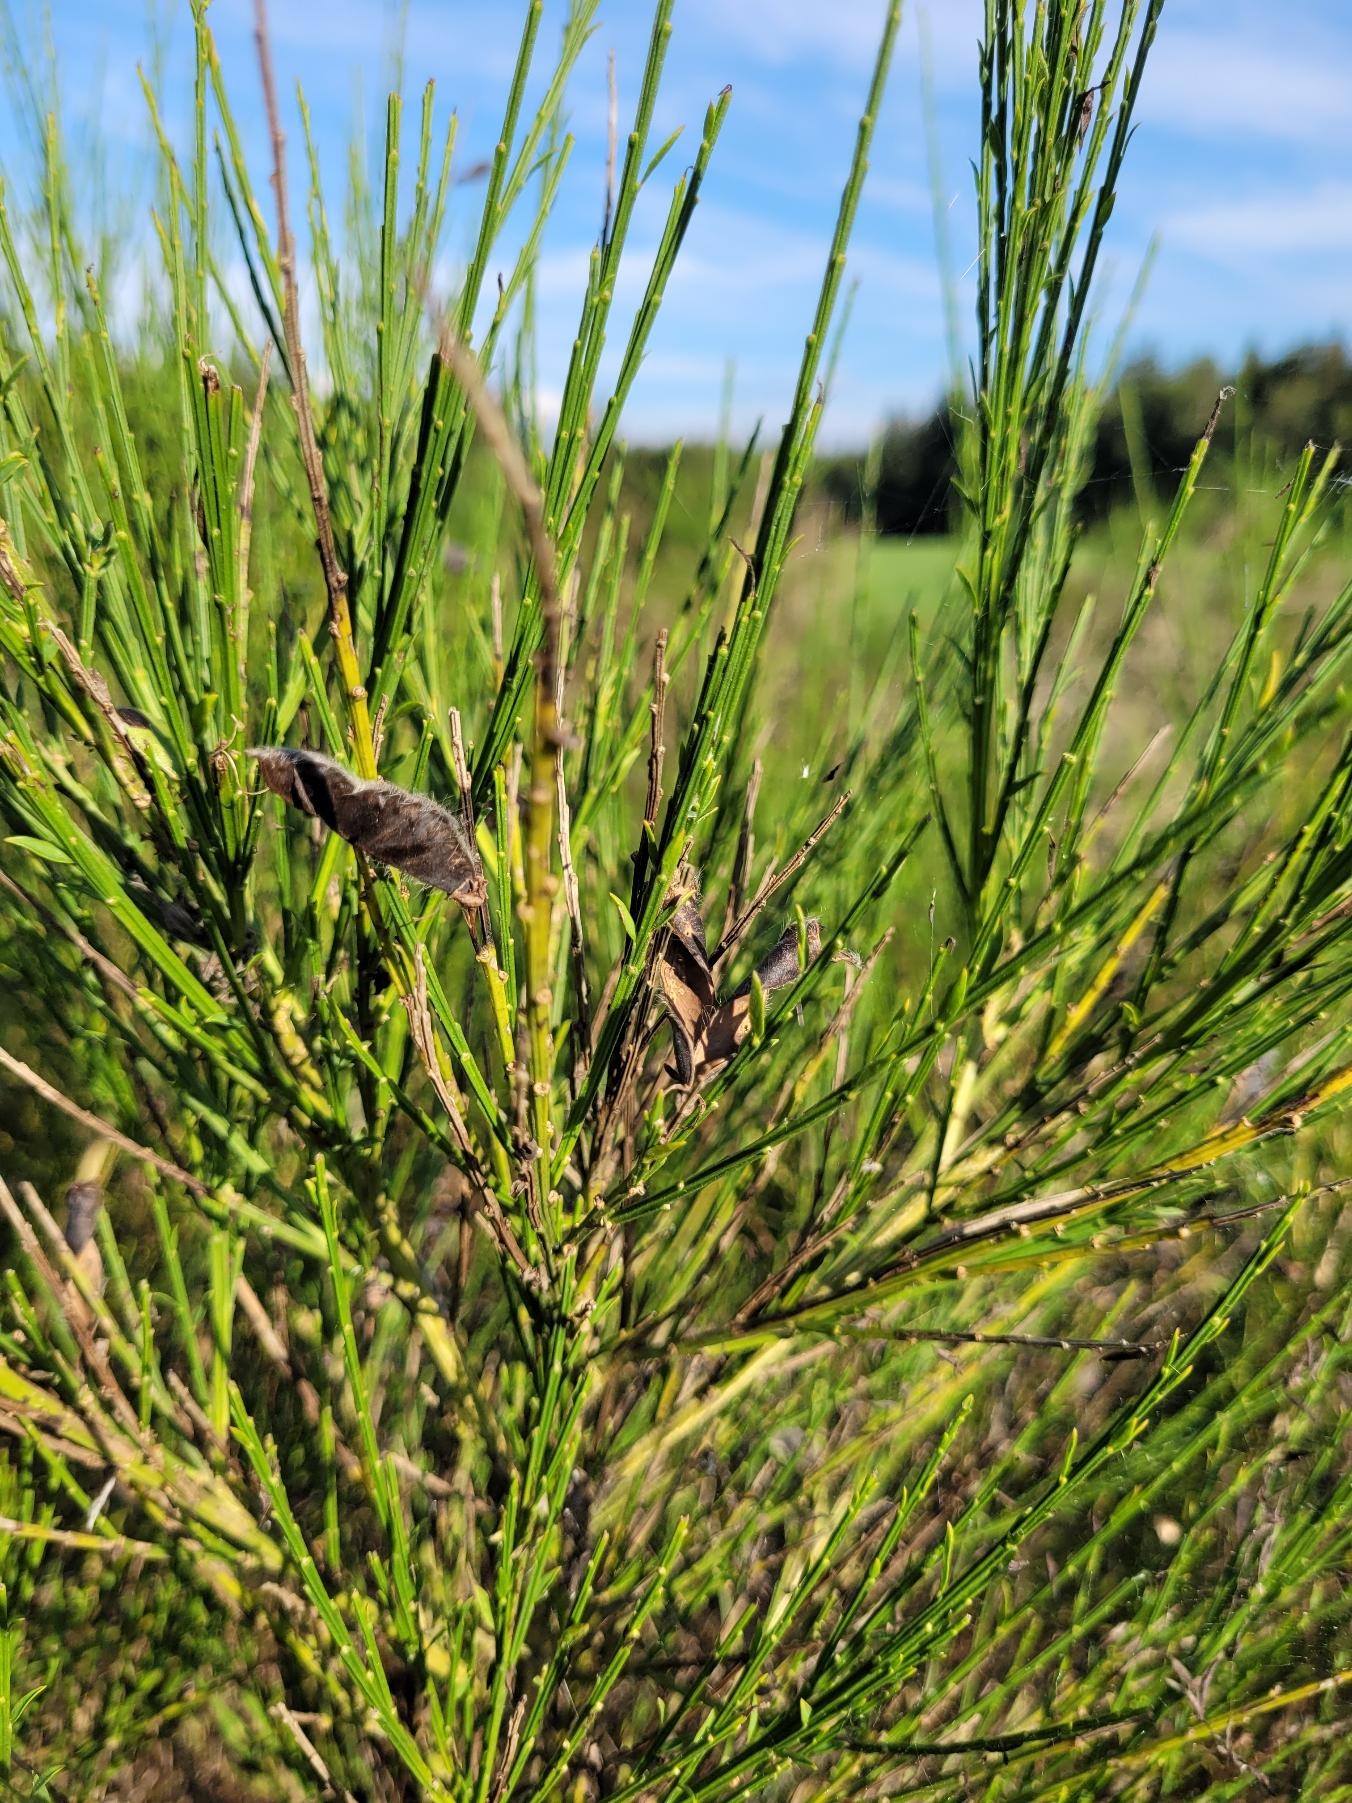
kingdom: Plantae
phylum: Tracheophyta
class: Magnoliopsida
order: Fabales
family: Fabaceae
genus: Cytisus
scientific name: Cytisus scoparius
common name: Almindelig gyvel
